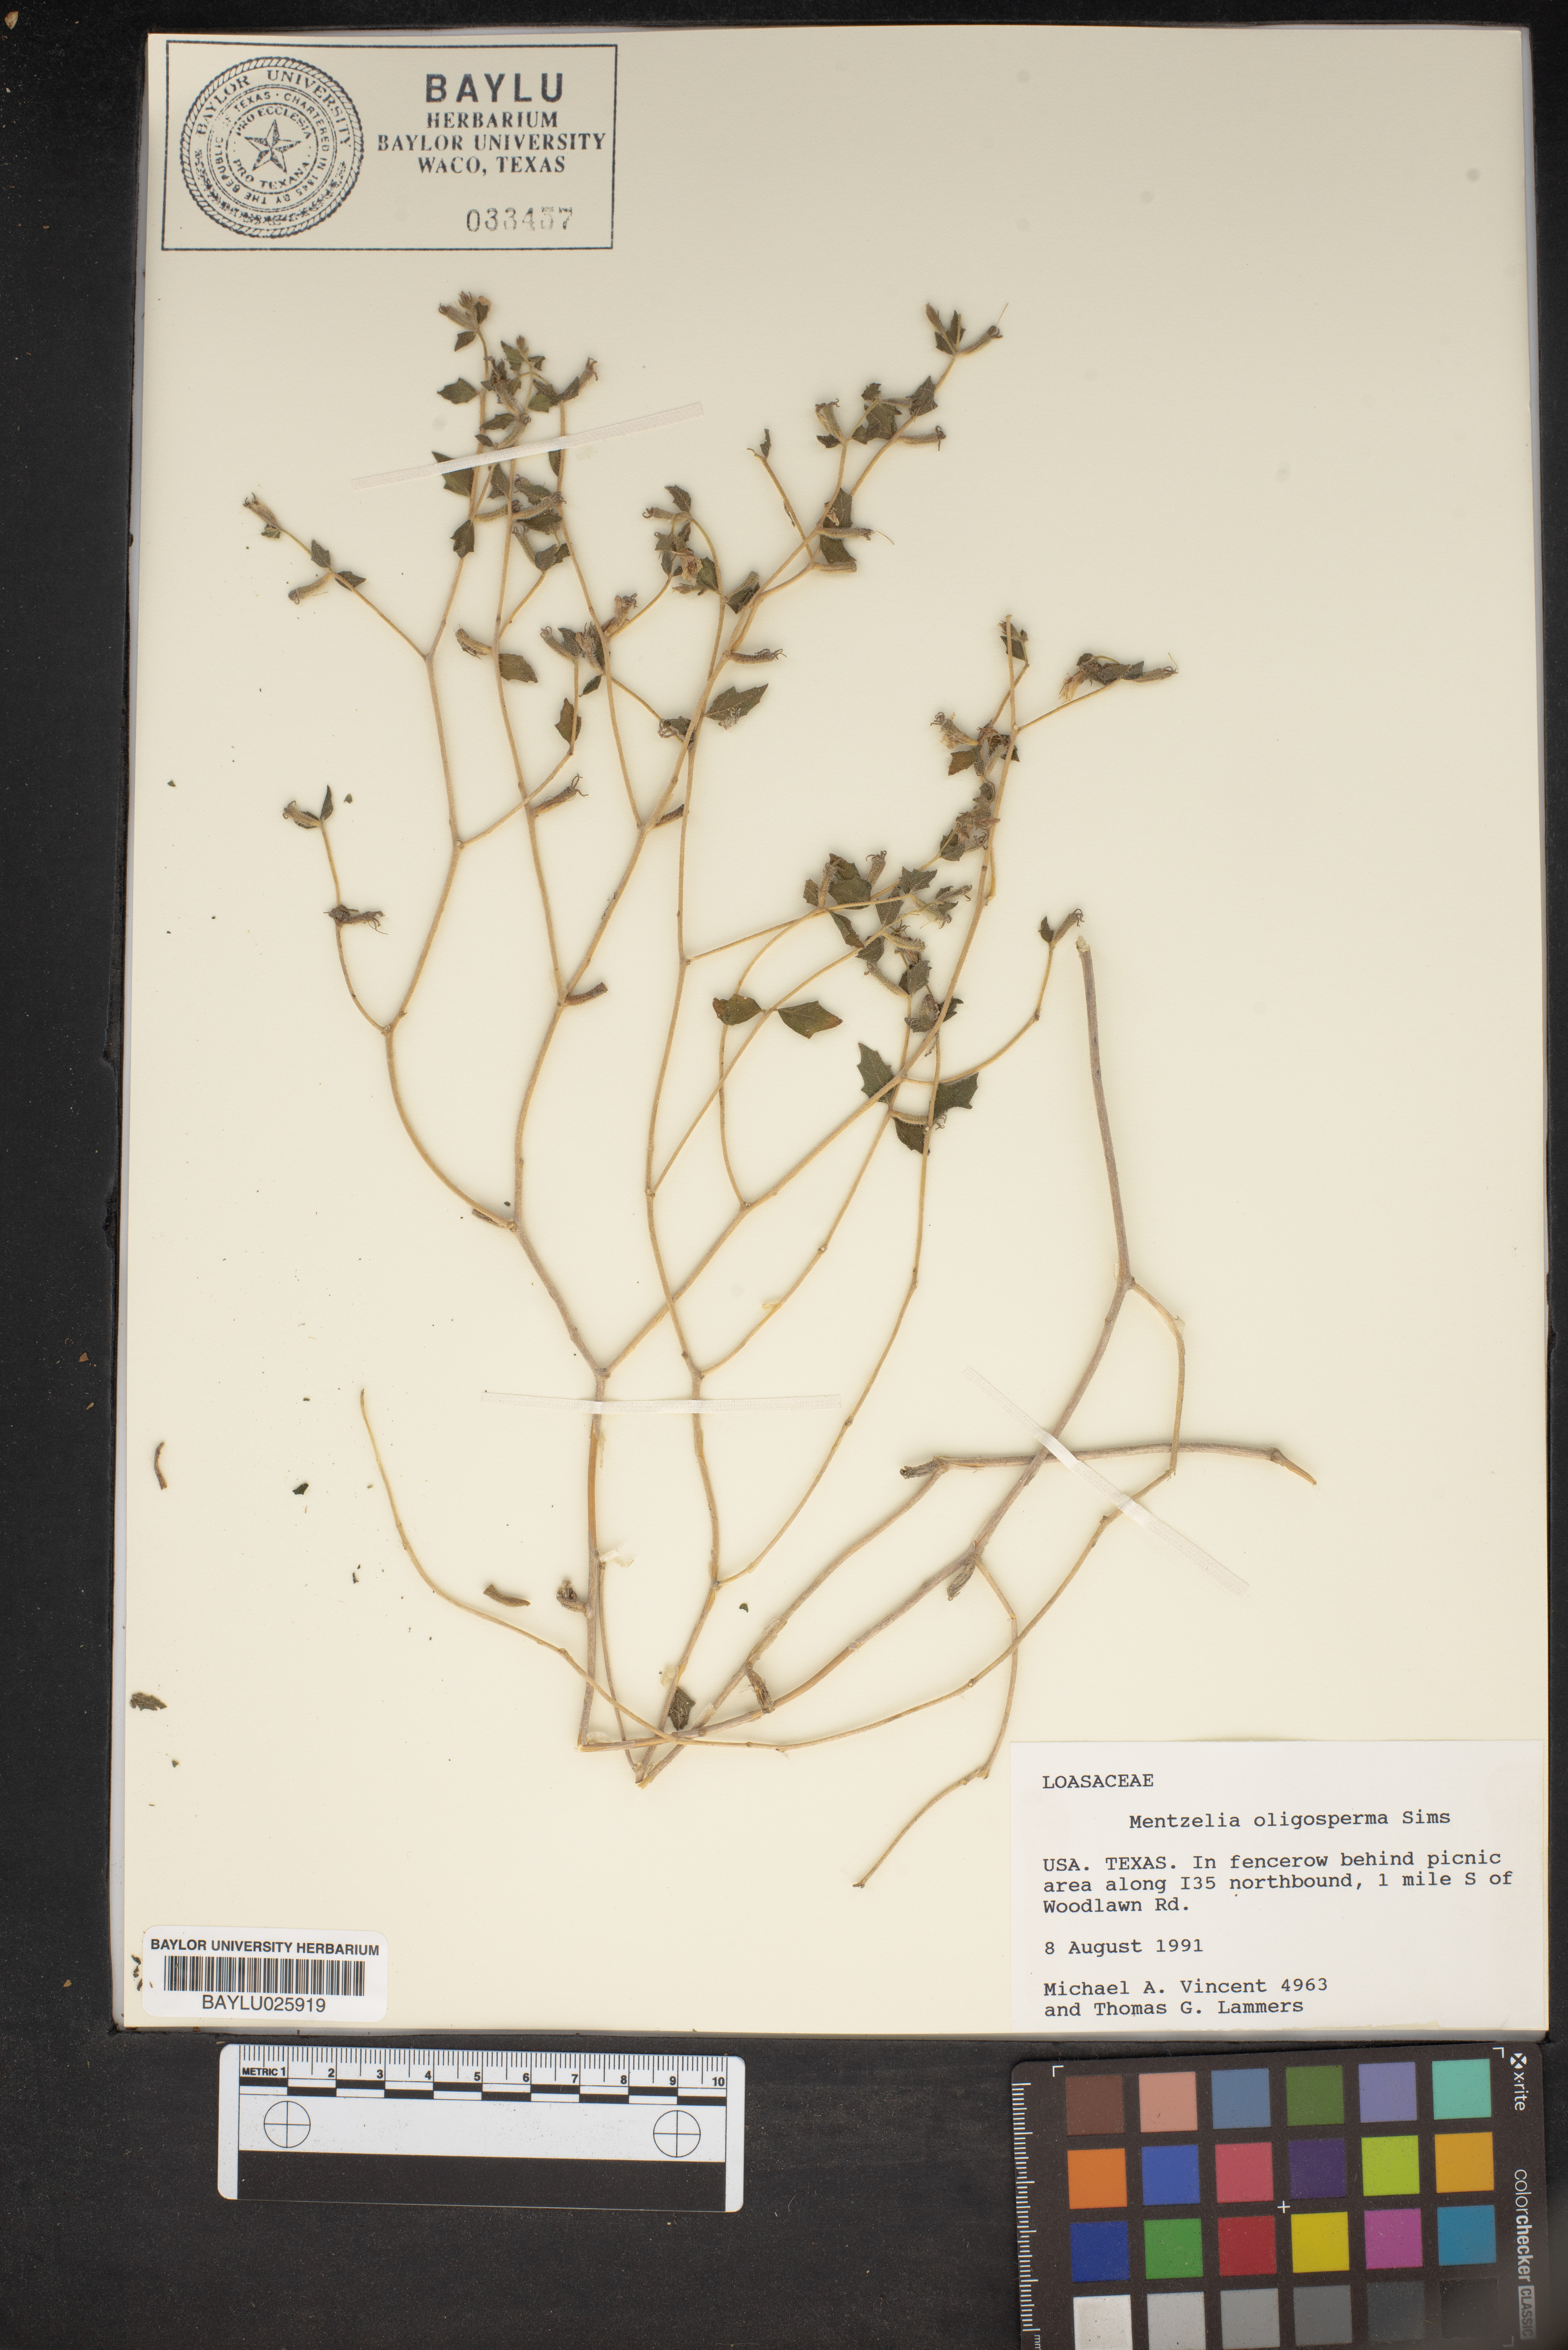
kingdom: Plantae
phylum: Tracheophyta
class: Magnoliopsida
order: Cornales
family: Loasaceae
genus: Mentzelia
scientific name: Mentzelia oligosperma
